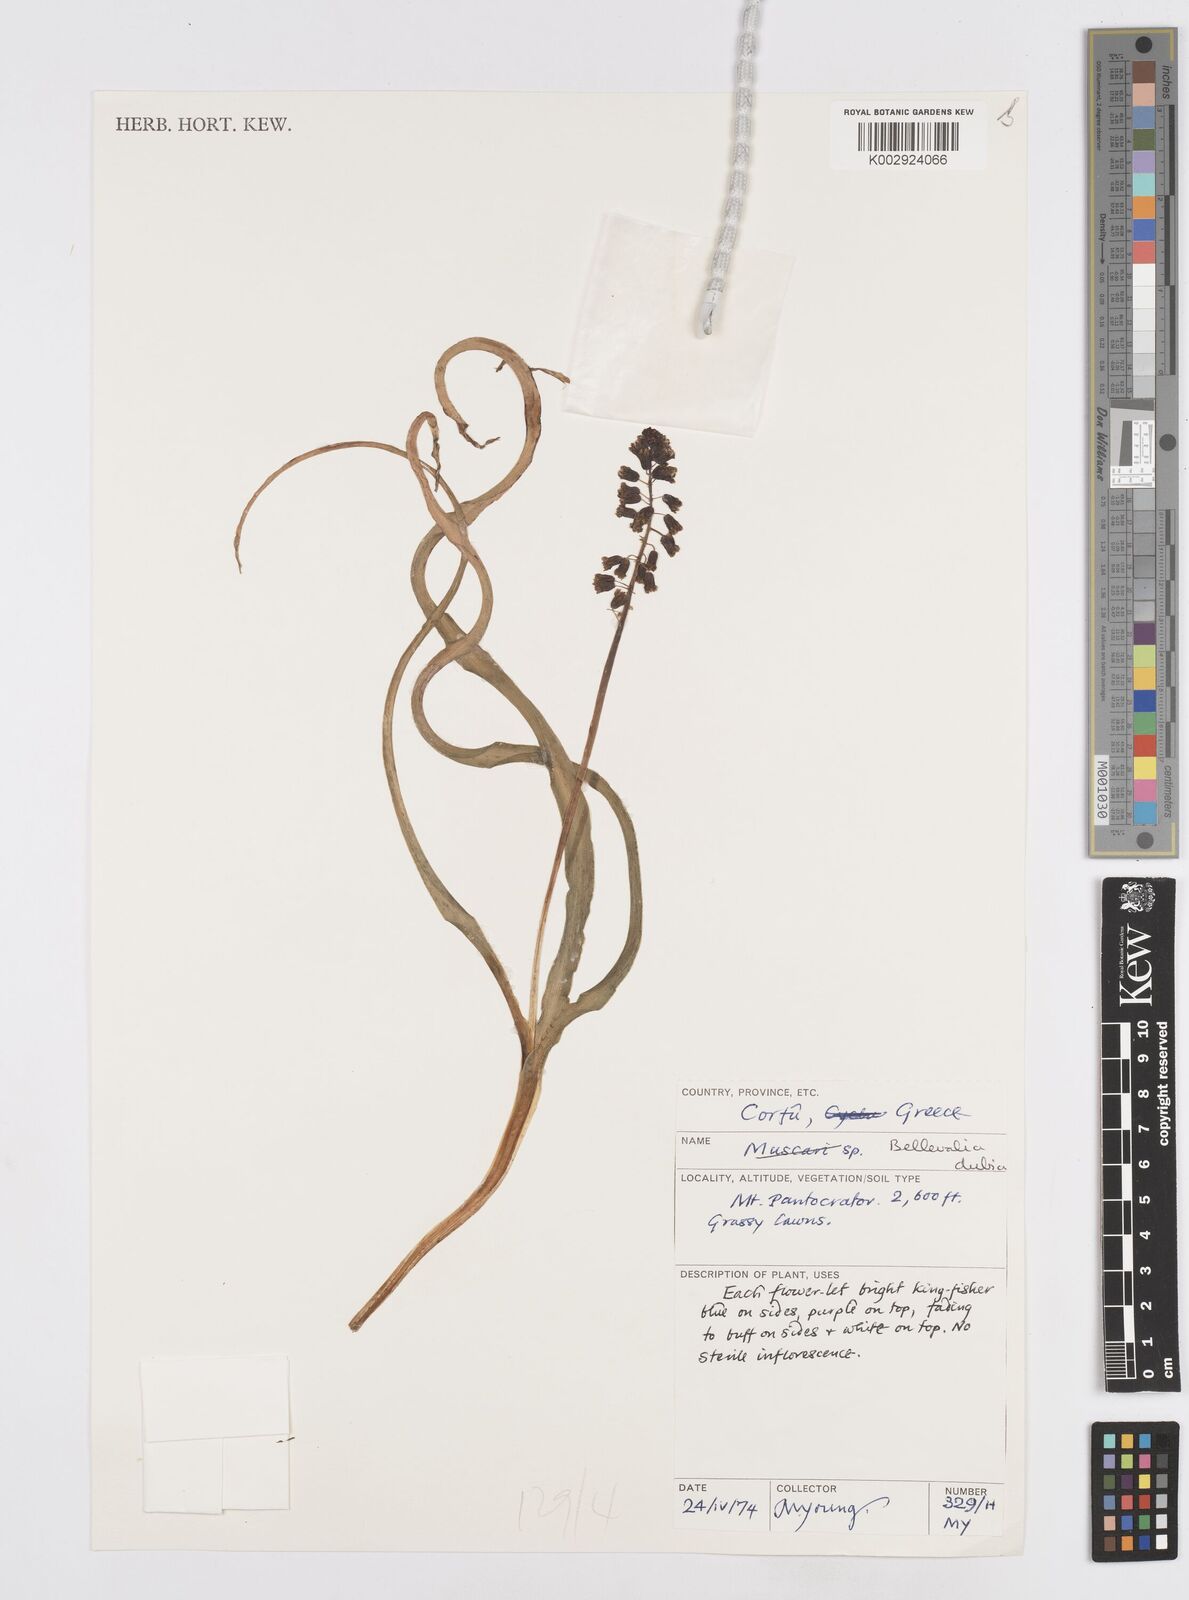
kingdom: Plantae
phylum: Tracheophyta
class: Liliopsida
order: Asparagales
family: Asparagaceae
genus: Bellevalia
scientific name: Bellevalia dubia
